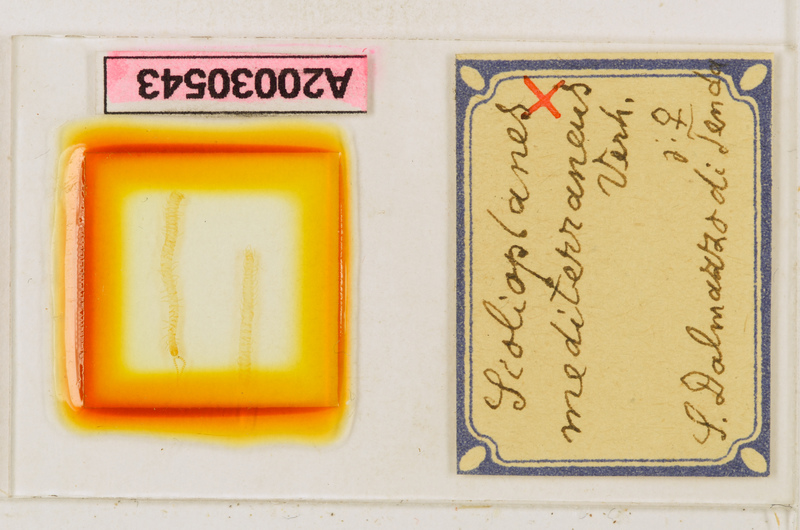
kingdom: Animalia
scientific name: Animalia
